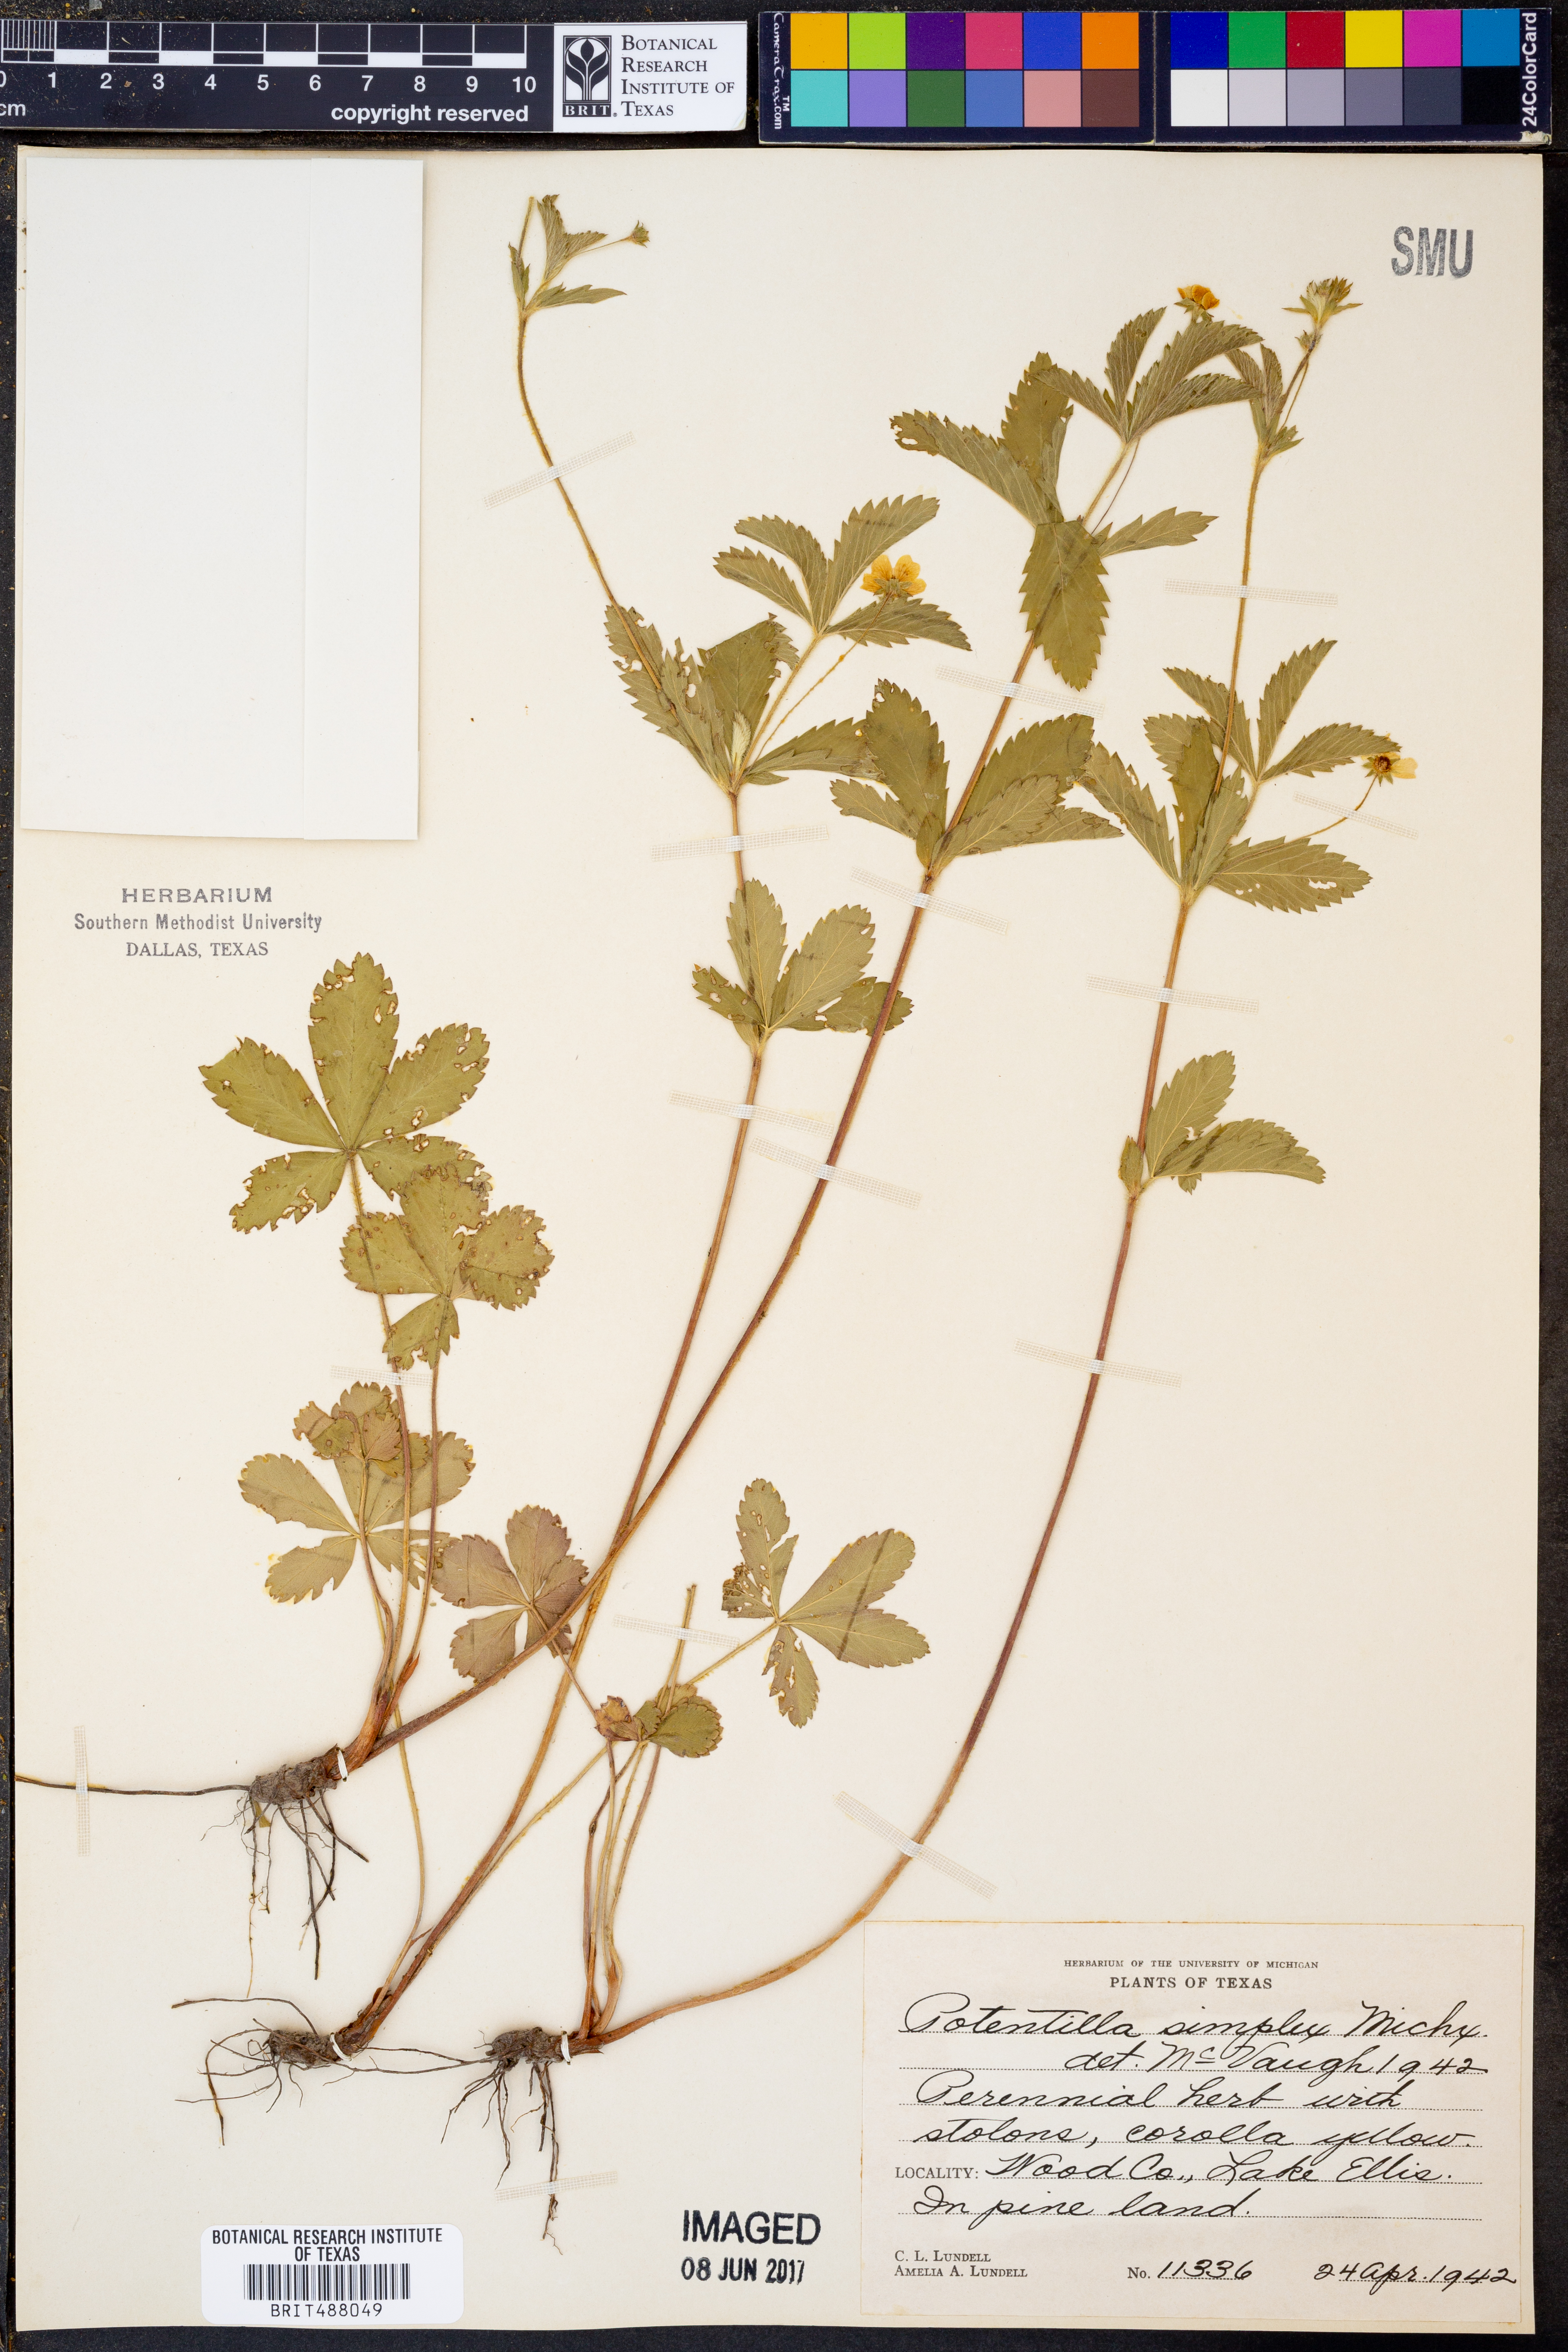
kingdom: Plantae
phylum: Tracheophyta
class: Magnoliopsida
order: Rosales
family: Rosaceae
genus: Potentilla
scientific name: Potentilla simplex
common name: Old field cinquefoil
